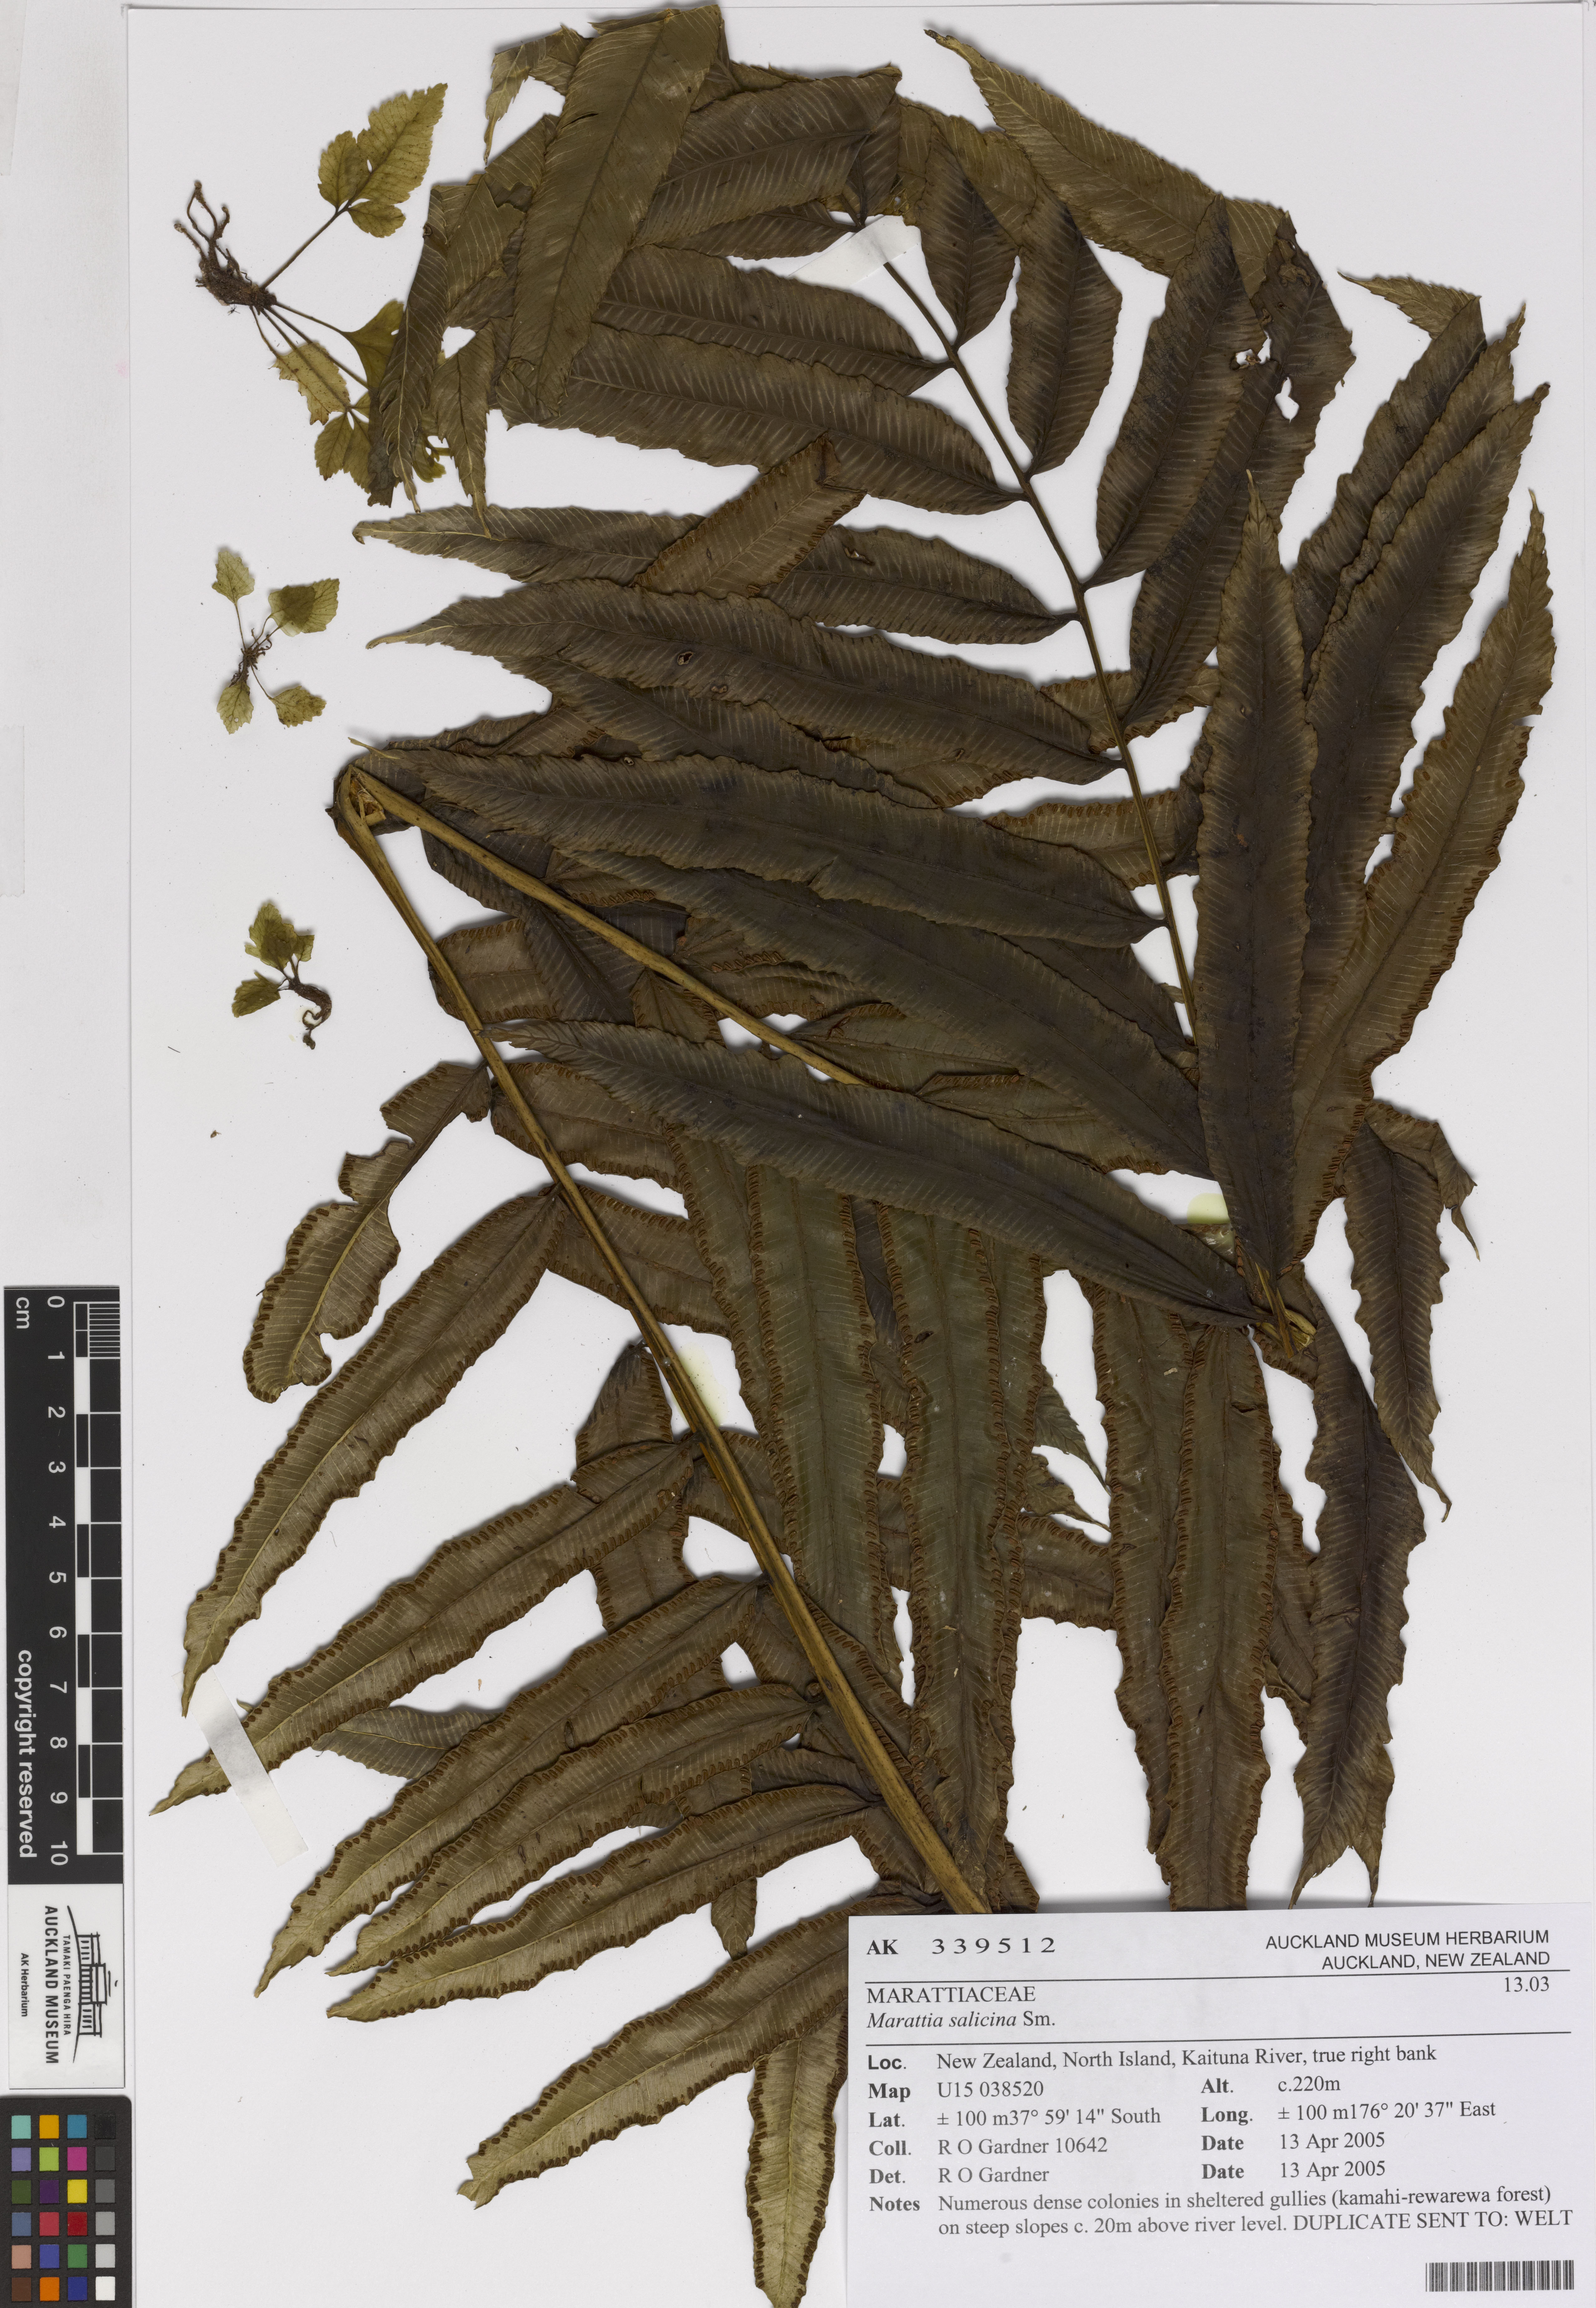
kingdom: Plantae
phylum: Tracheophyta
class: Polypodiopsida
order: Marattiales
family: Marattiaceae
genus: Ptisana
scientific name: Ptisana salicina
